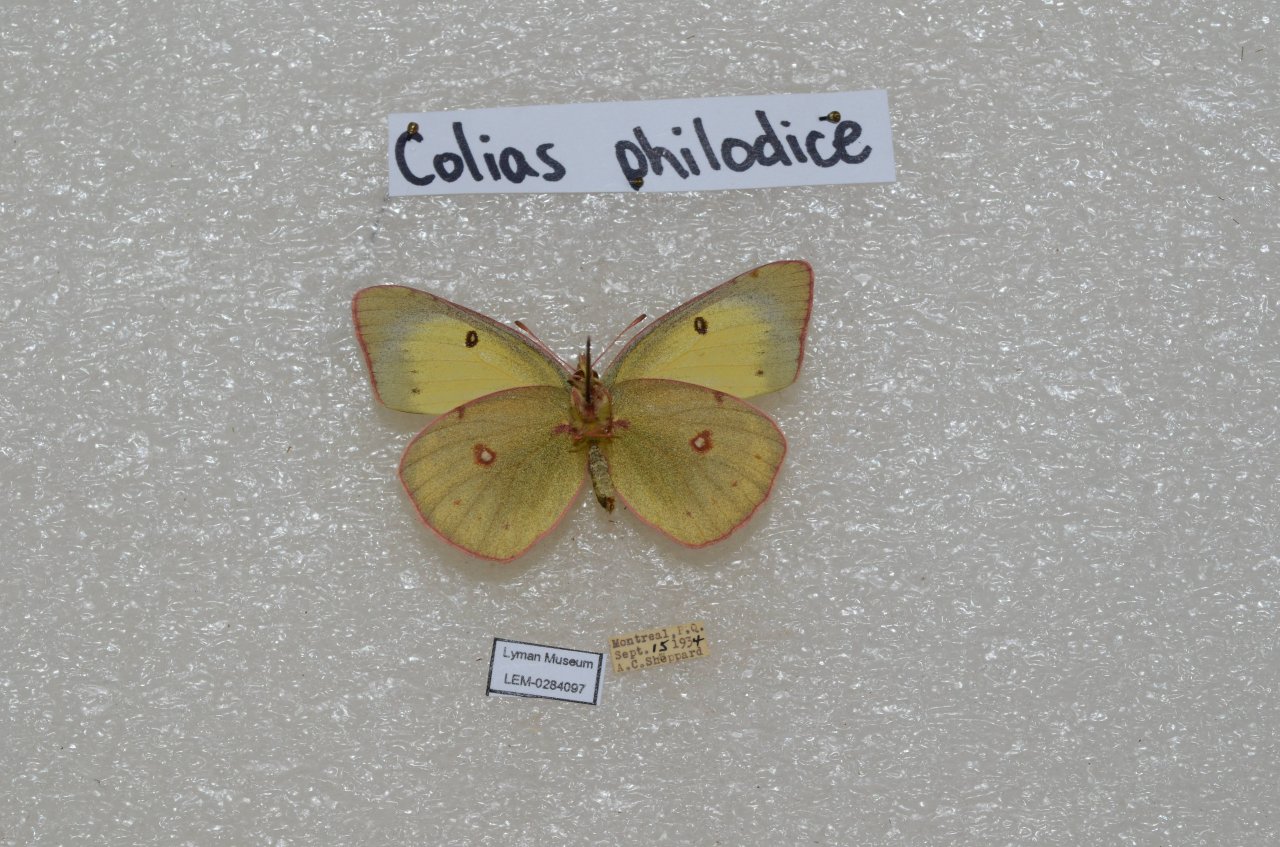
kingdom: Animalia
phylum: Arthropoda
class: Insecta
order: Lepidoptera
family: Pieridae
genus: Colias
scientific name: Colias philodice
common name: Clouded Sulphur
